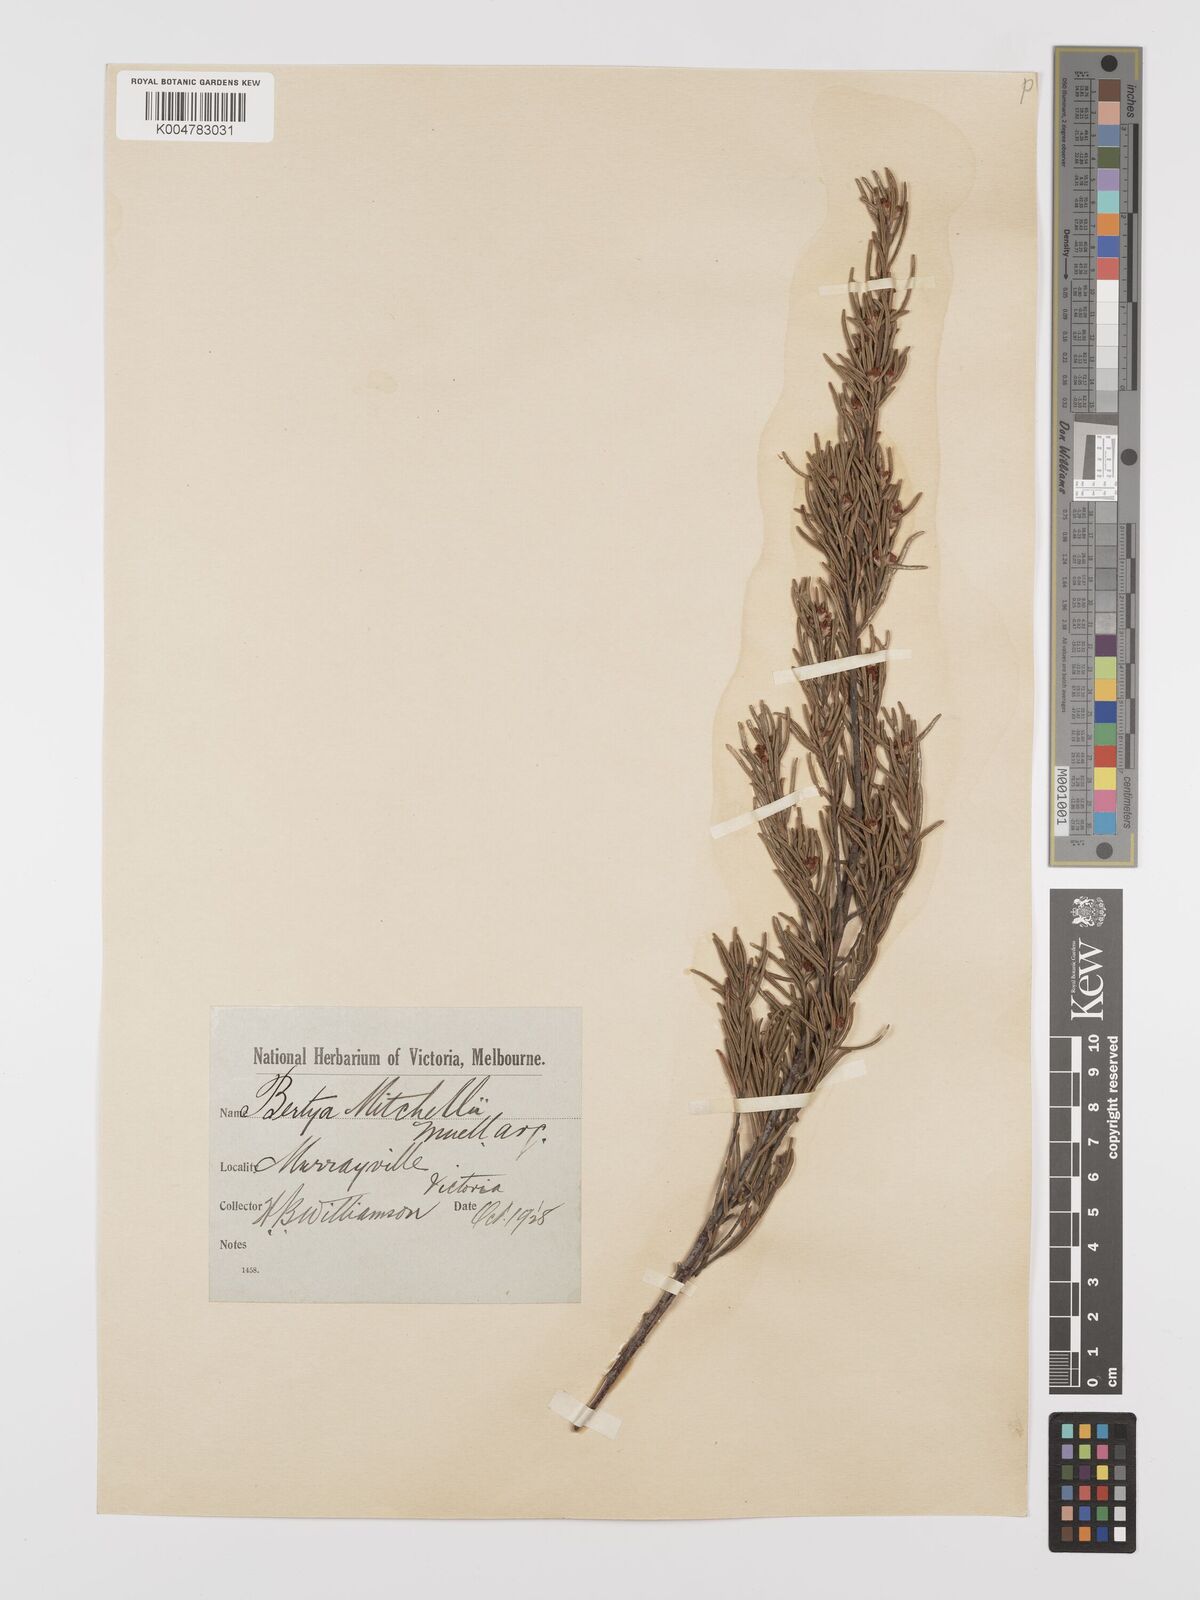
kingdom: Plantae
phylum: Tracheophyta
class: Magnoliopsida
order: Malpighiales
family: Euphorbiaceae
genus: Bertya
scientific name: Bertya oleifolia
